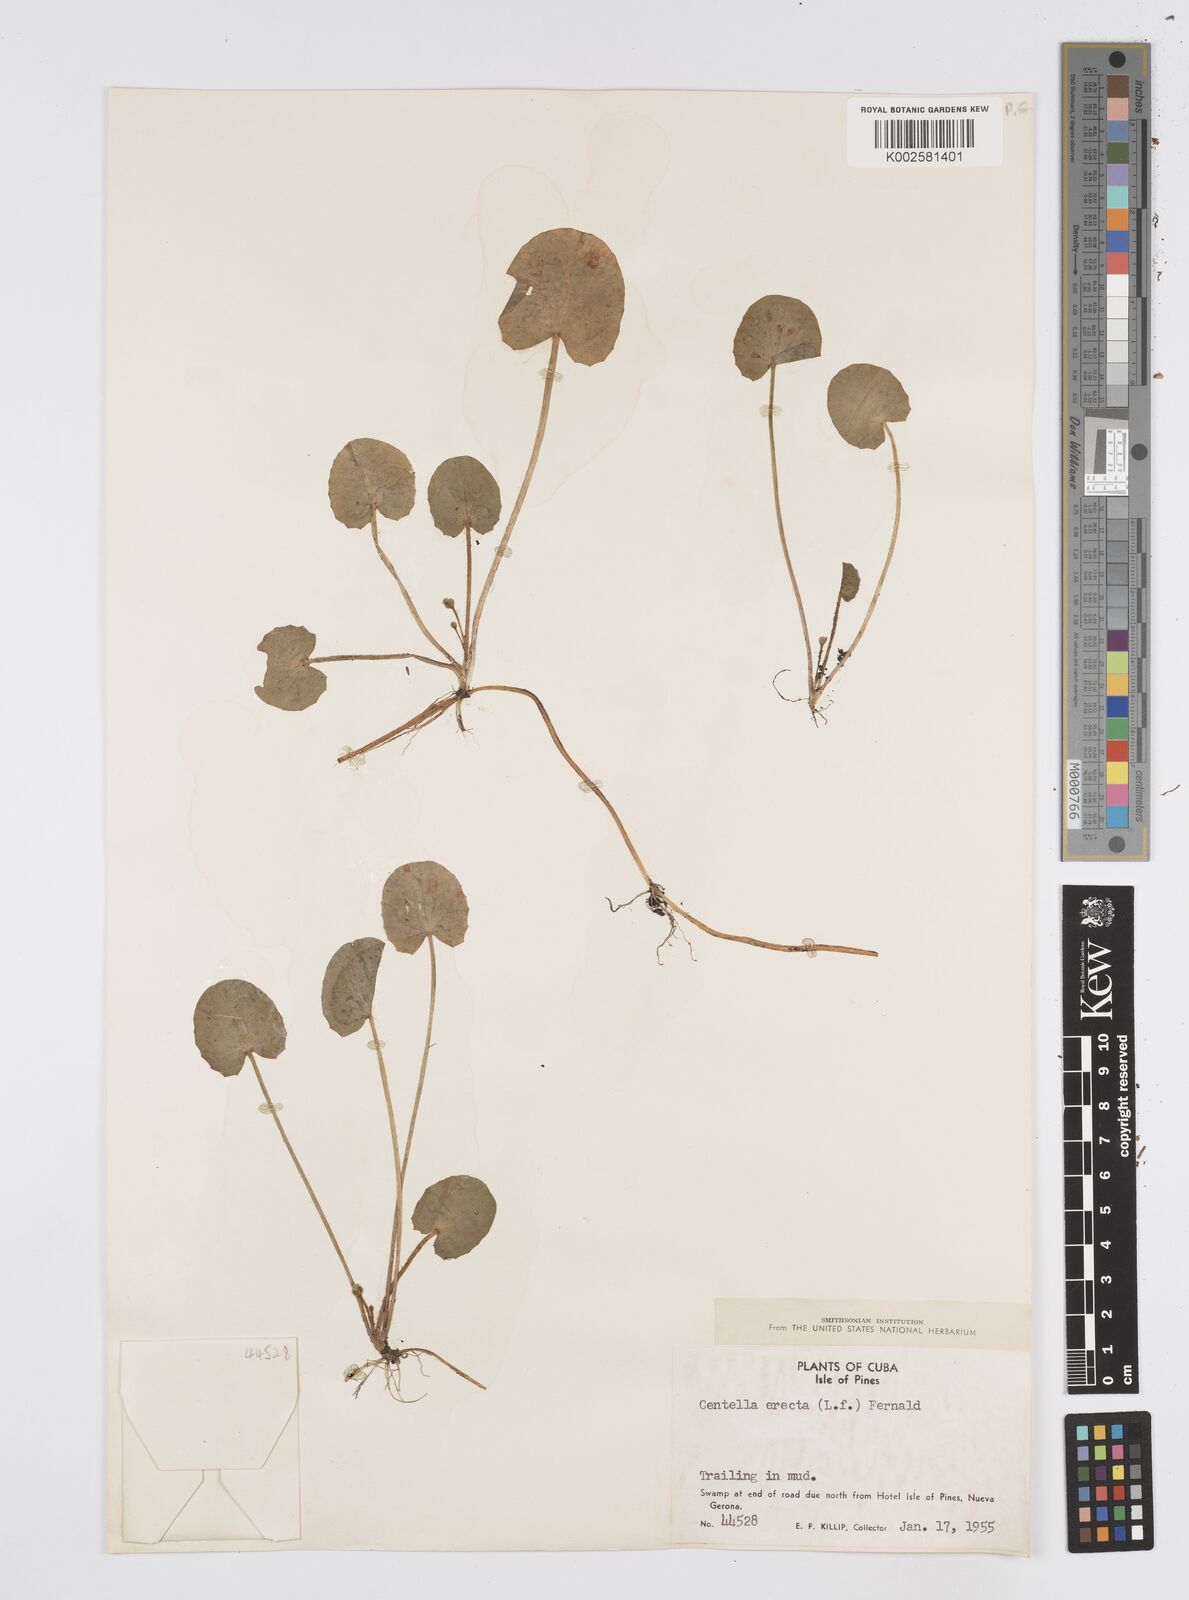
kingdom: Plantae
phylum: Tracheophyta
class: Magnoliopsida
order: Apiales
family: Apiaceae
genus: Centella
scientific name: Centella asiatica
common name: Spadeleaf
